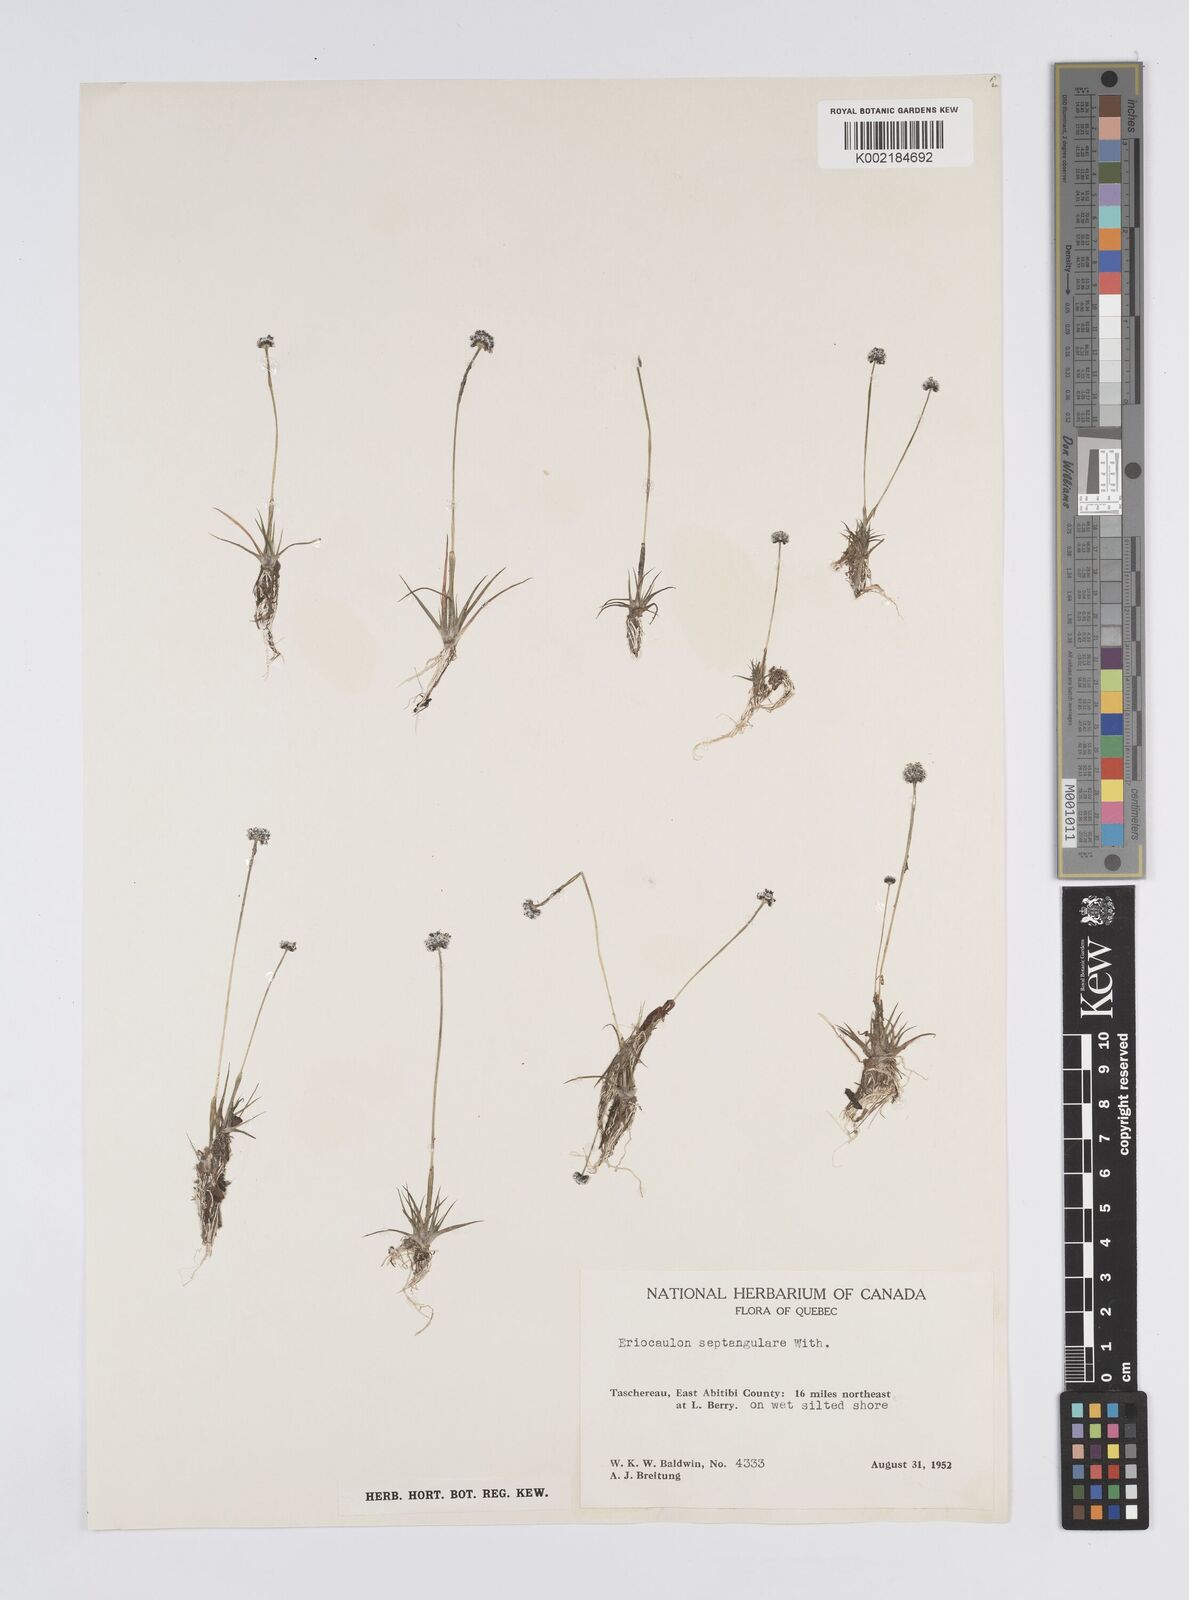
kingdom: Plantae
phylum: Tracheophyta
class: Liliopsida
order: Poales
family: Eriocaulaceae
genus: Eriocaulon
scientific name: Eriocaulon aquaticum
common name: Pipewort
